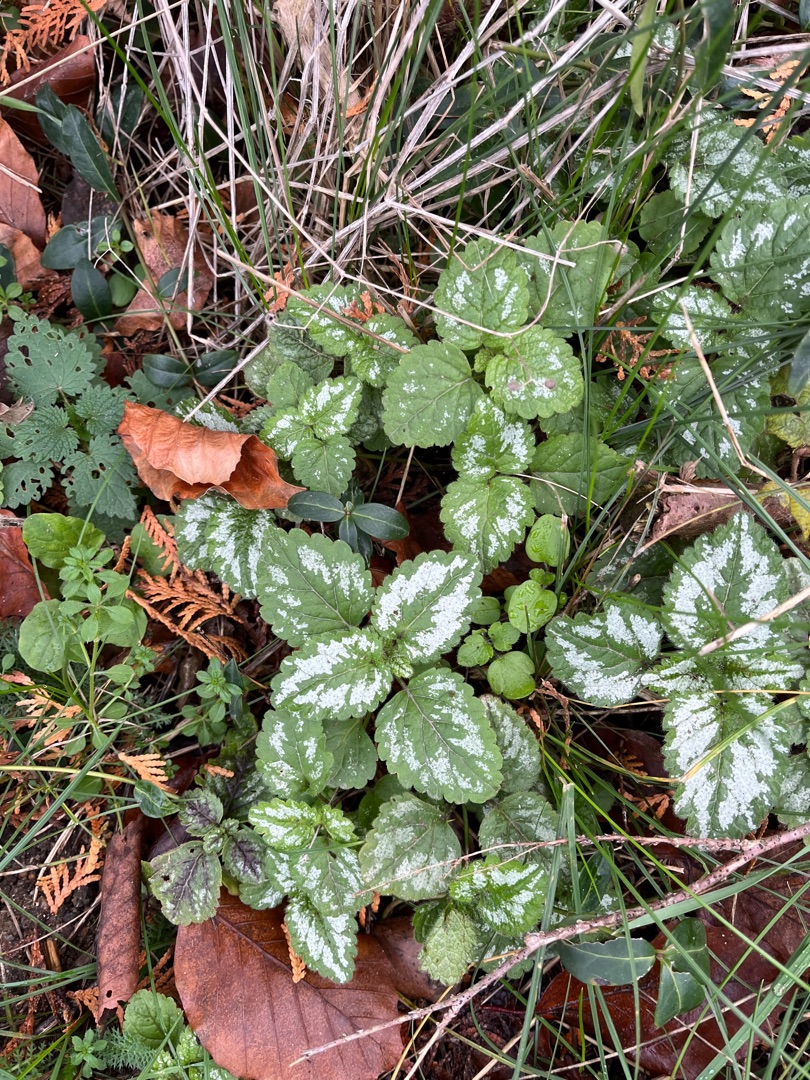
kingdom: Plantae
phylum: Tracheophyta
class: Magnoliopsida
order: Lamiales
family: Lamiaceae
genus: Lamium
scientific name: Lamium galeobdolon
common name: Have-guldnælde
